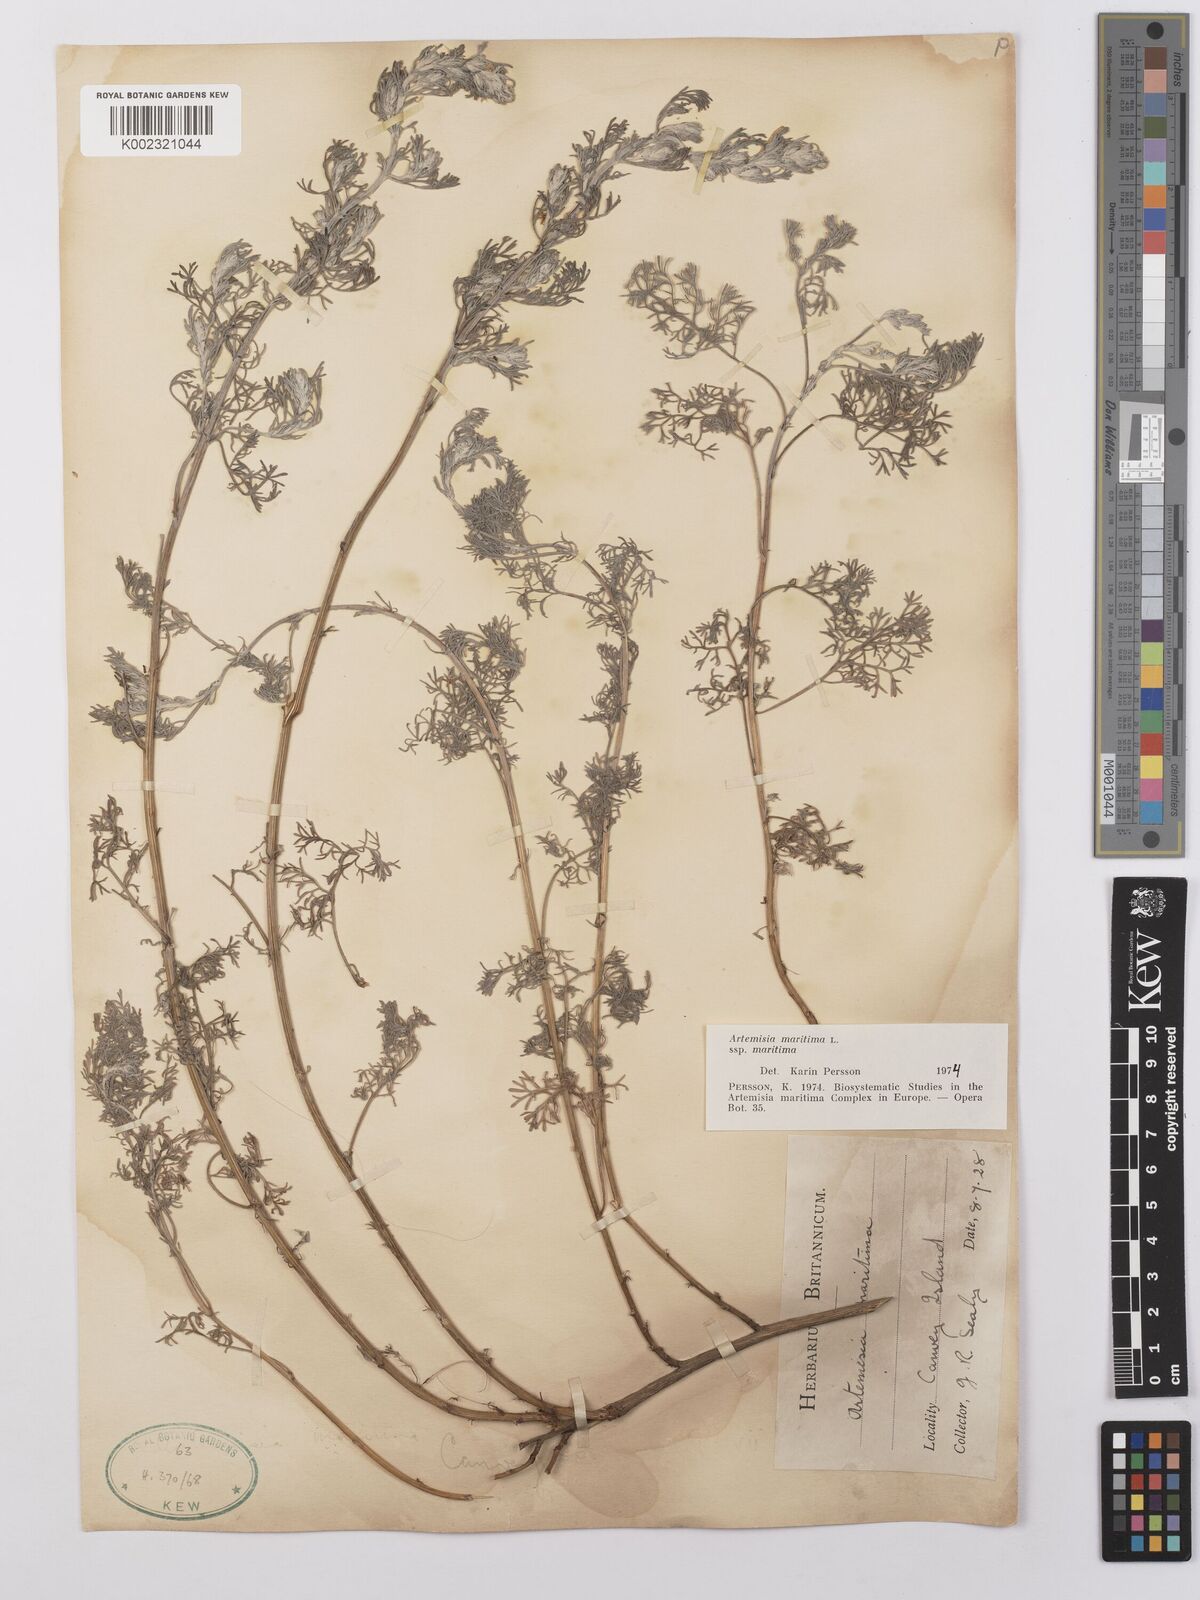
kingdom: Plantae
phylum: Tracheophyta
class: Magnoliopsida
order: Asterales
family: Asteraceae
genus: Artemisia
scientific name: Artemisia maritima
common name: Wormseed
